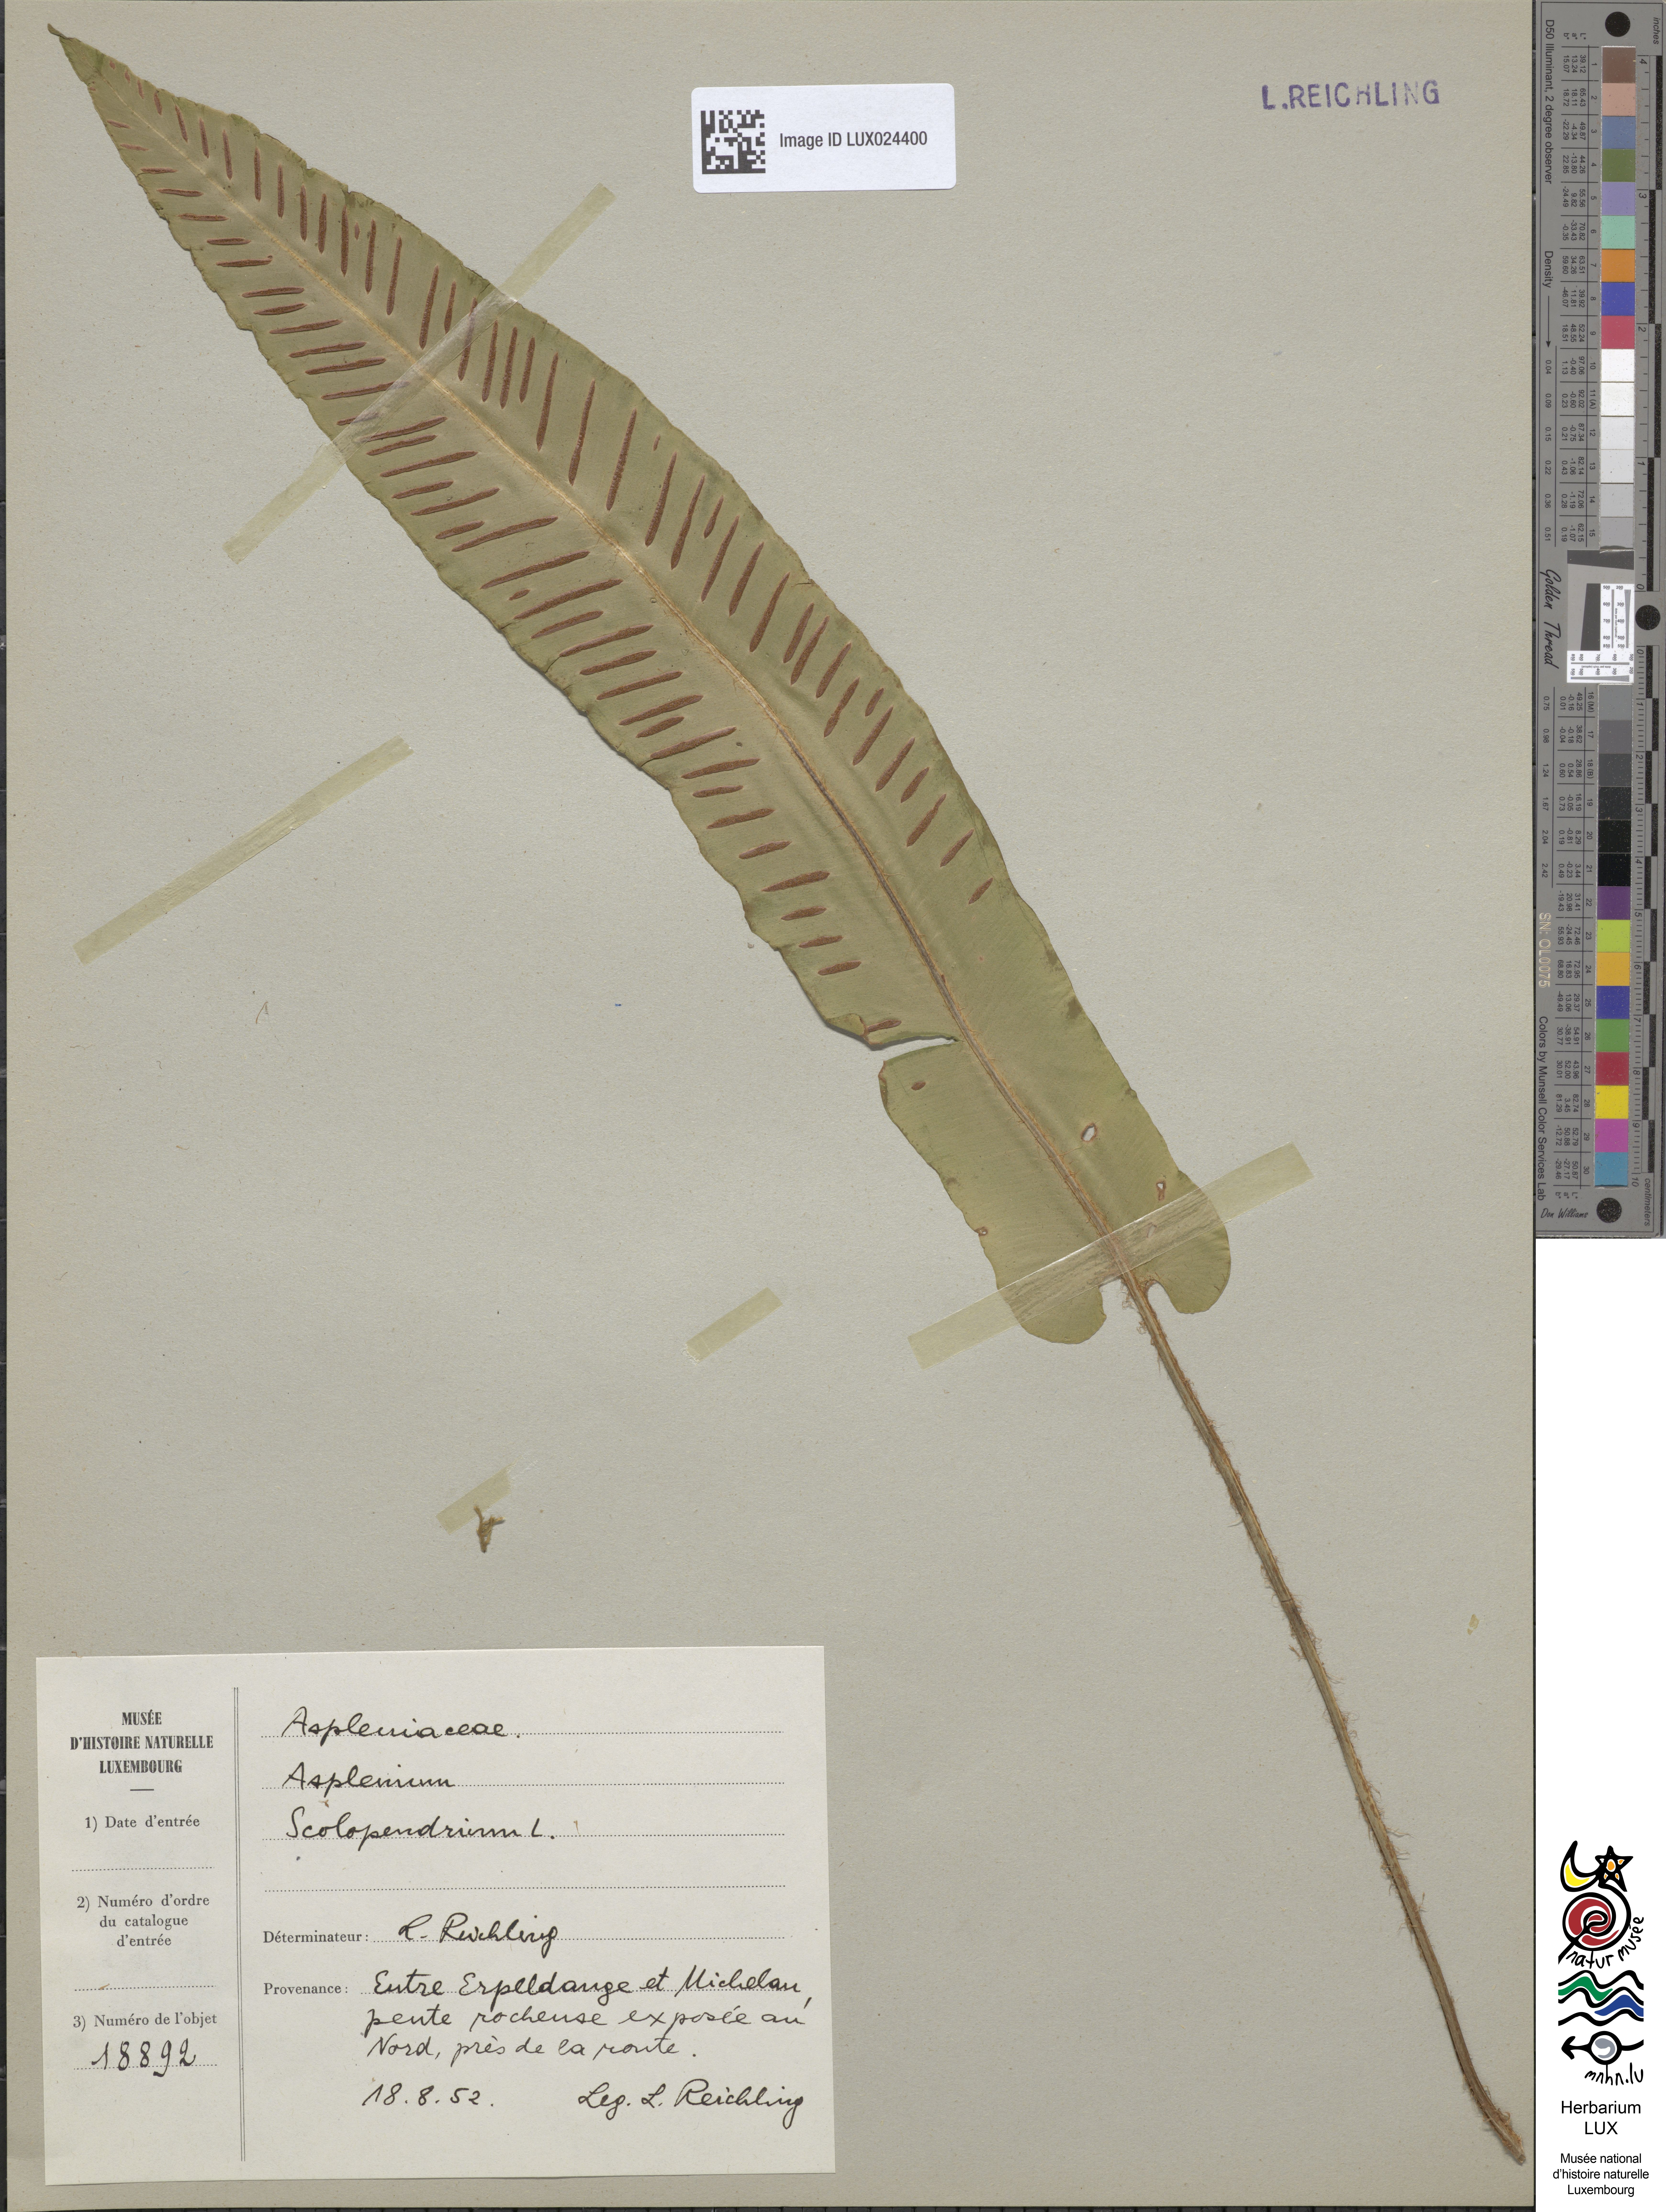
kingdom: Plantae
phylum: Tracheophyta
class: Polypodiopsida
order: Polypodiales
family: Aspleniaceae
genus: Asplenium
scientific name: Asplenium scolopendrium
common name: Hart's-tongue fern
